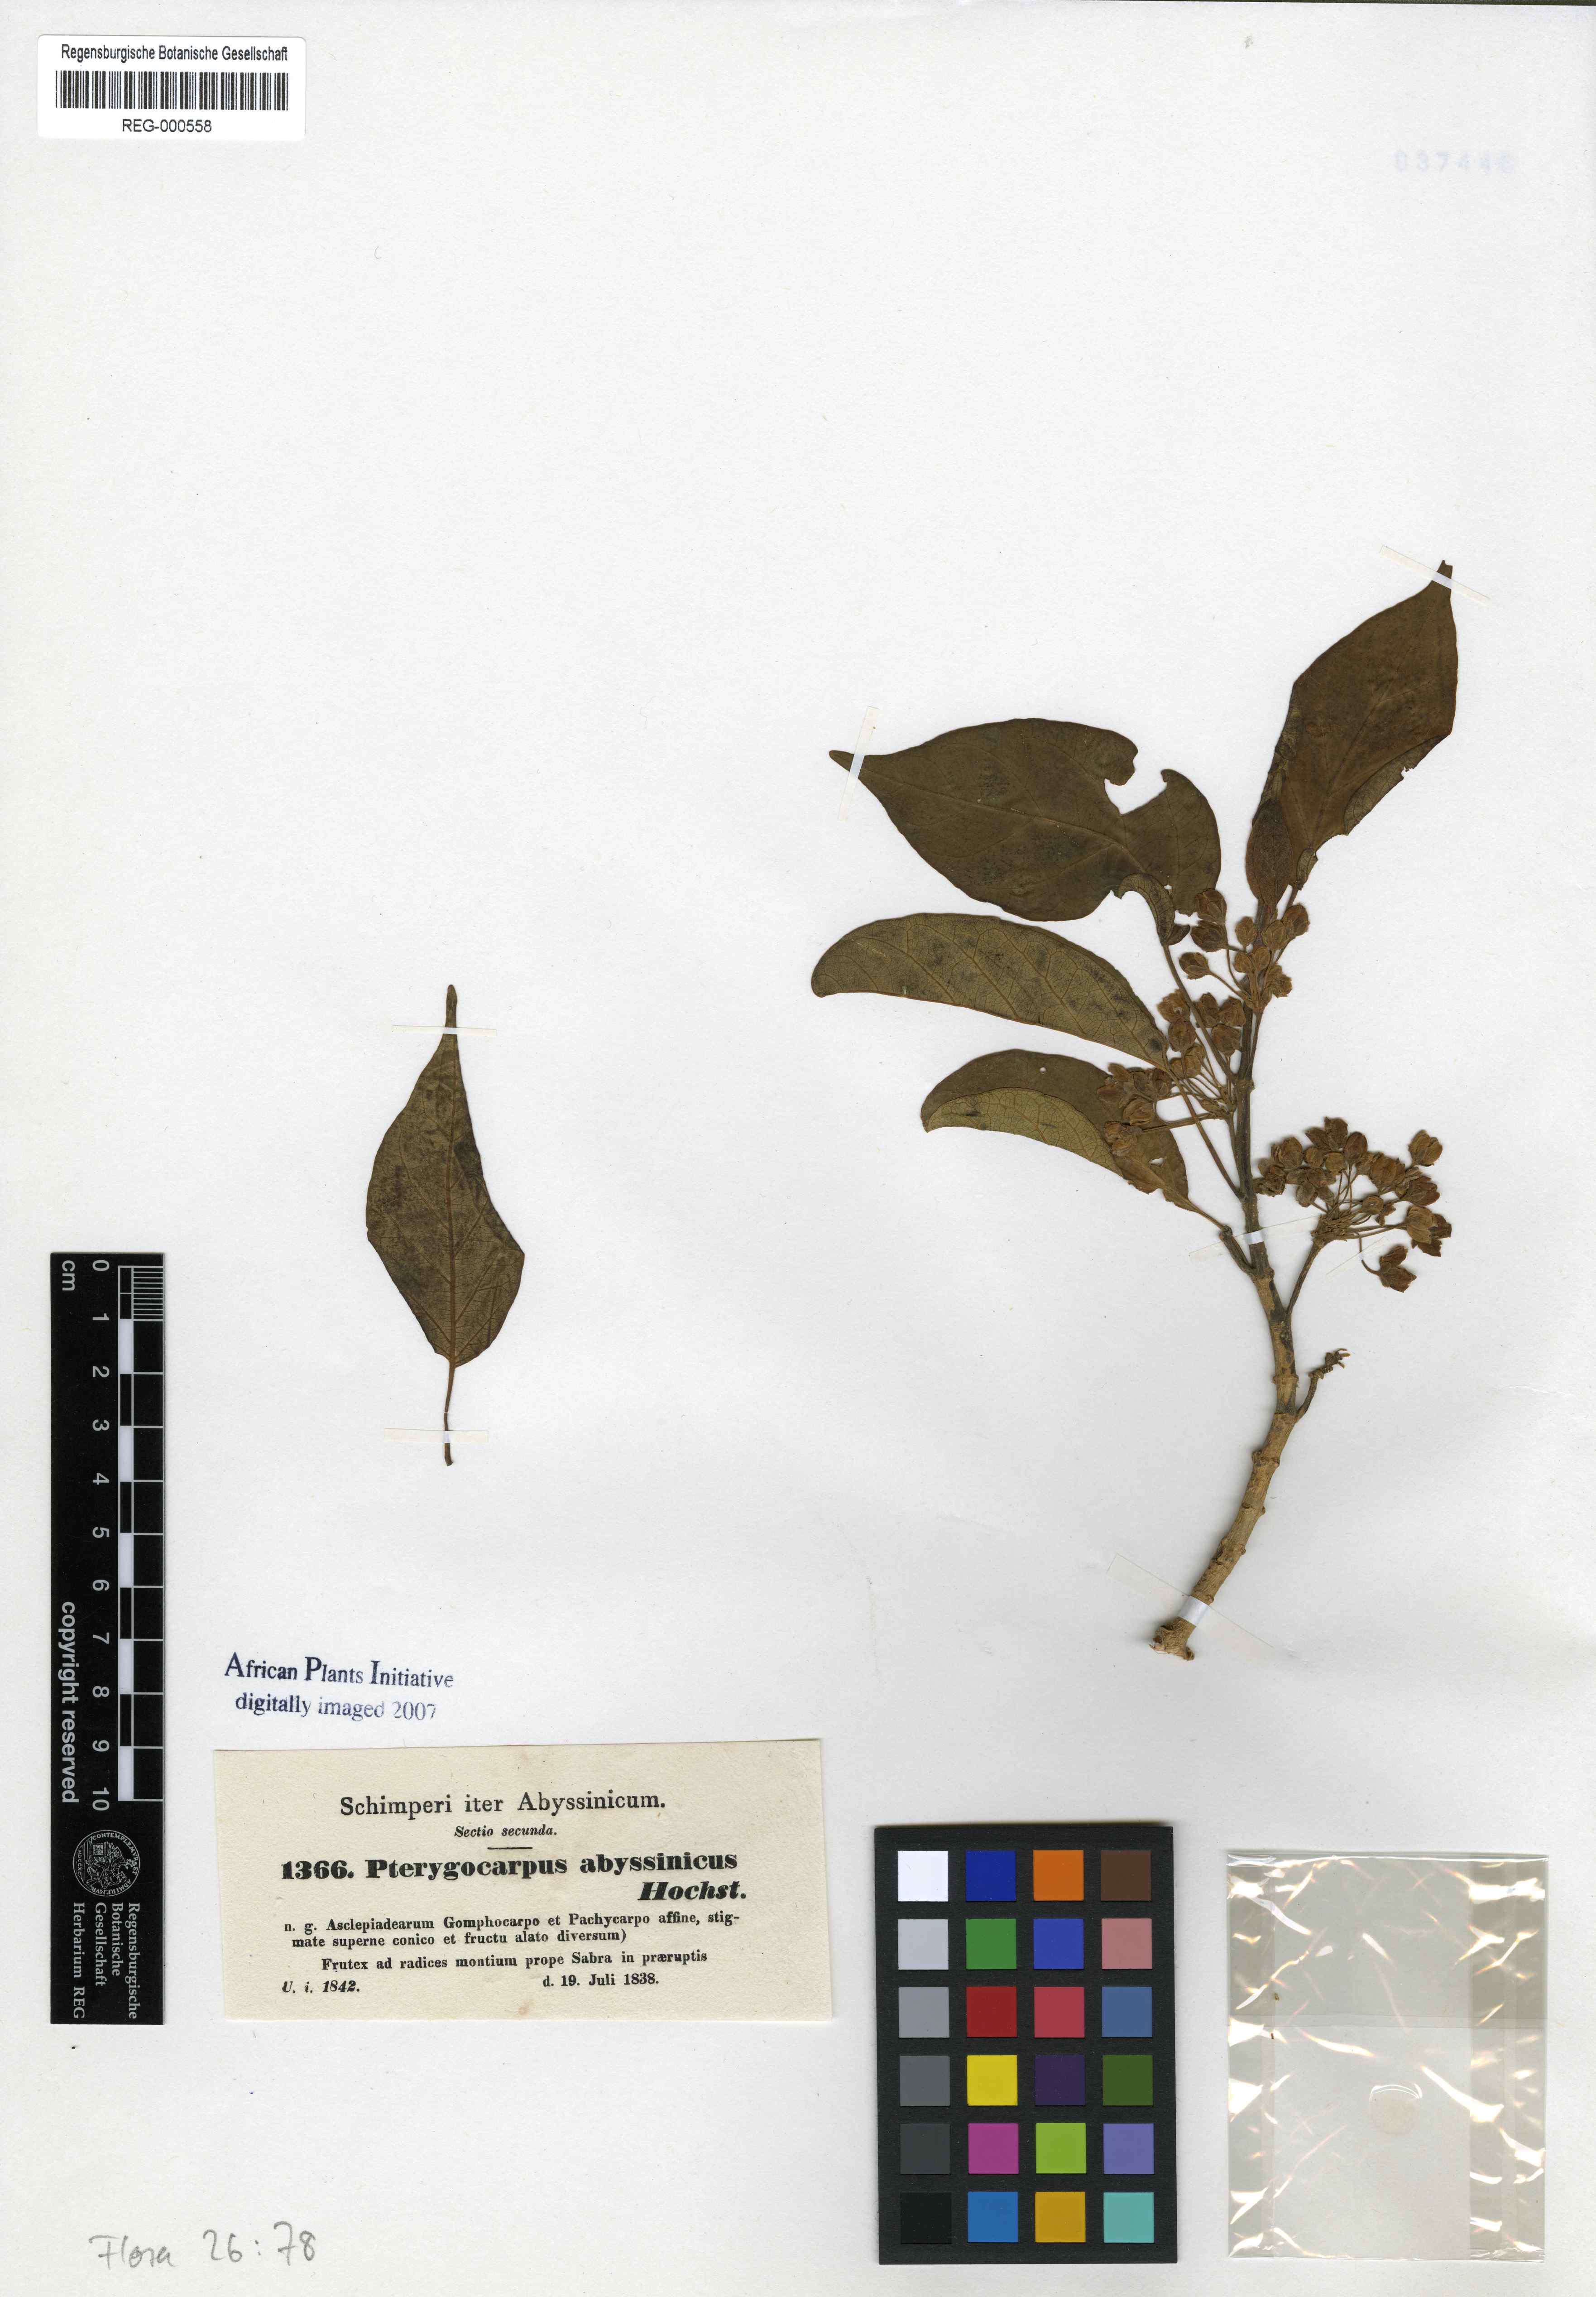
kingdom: Plantae
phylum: Tracheophyta
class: Magnoliopsida
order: Gentianales
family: Apocynaceae
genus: Stephanotis
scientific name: Stephanotis abyssinica
